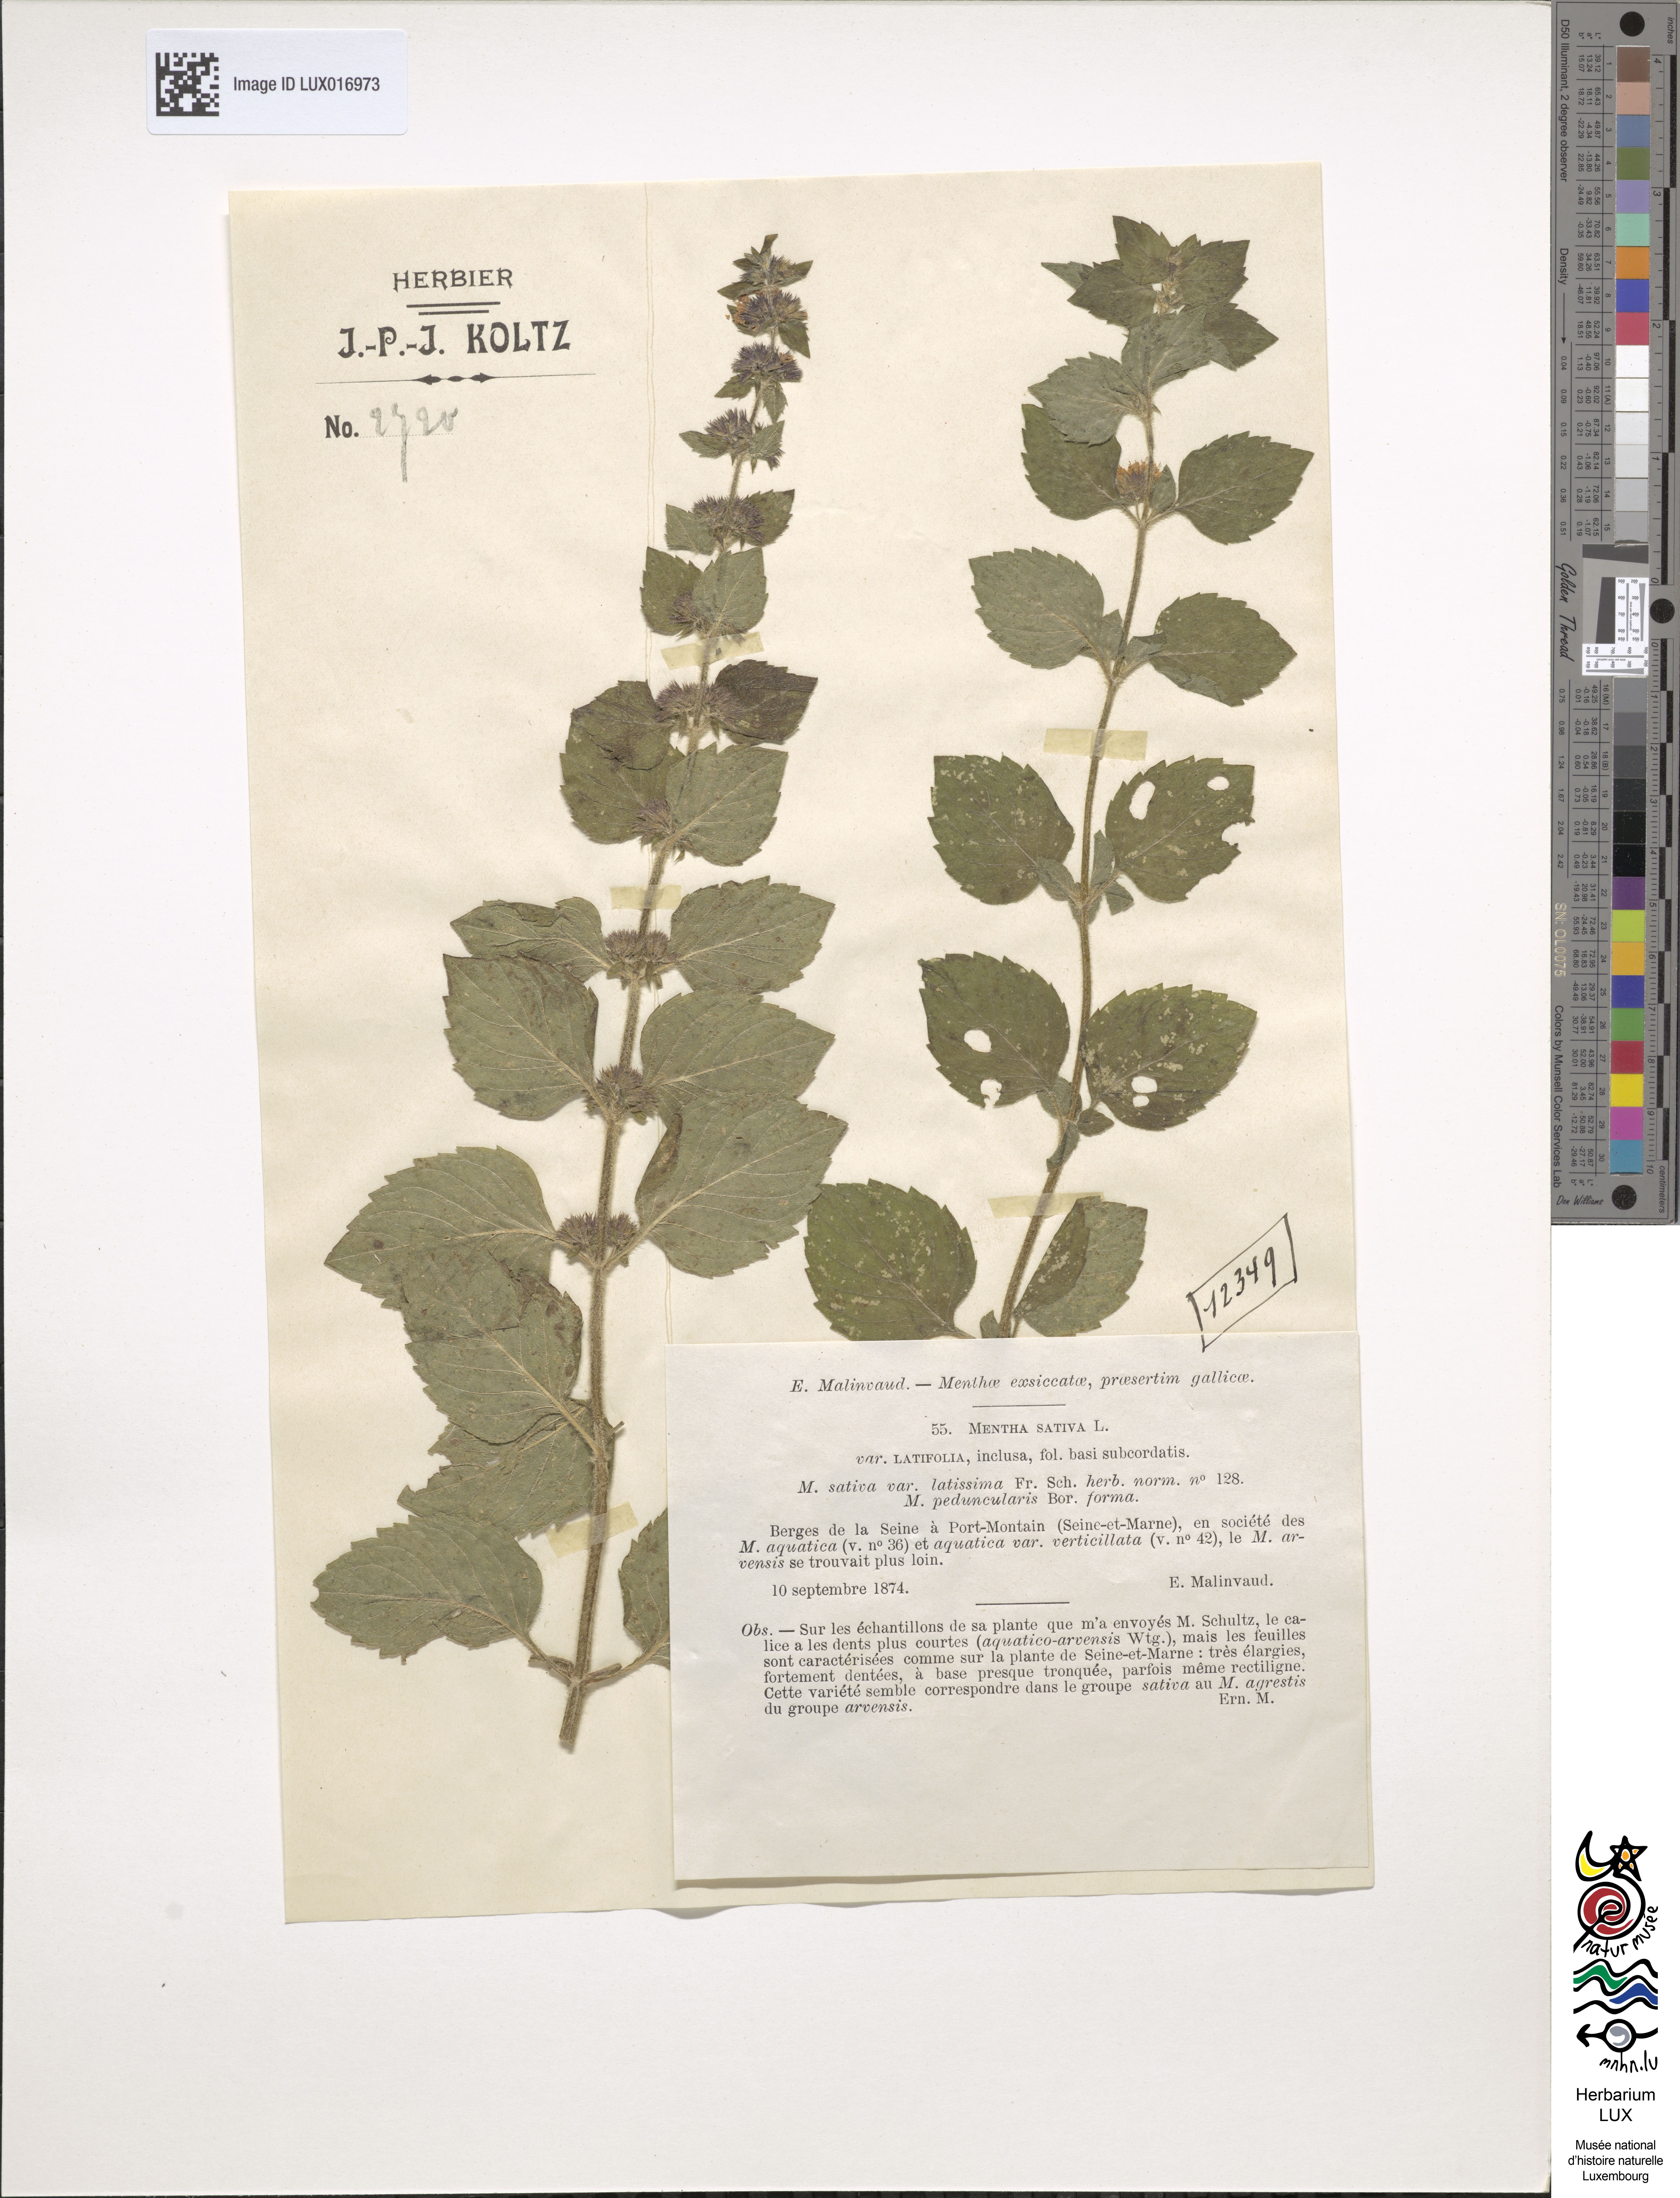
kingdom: Plantae
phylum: Tracheophyta
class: Magnoliopsida
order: Lamiales
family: Lamiaceae
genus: Mentha
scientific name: Mentha verticillata
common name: Mint
